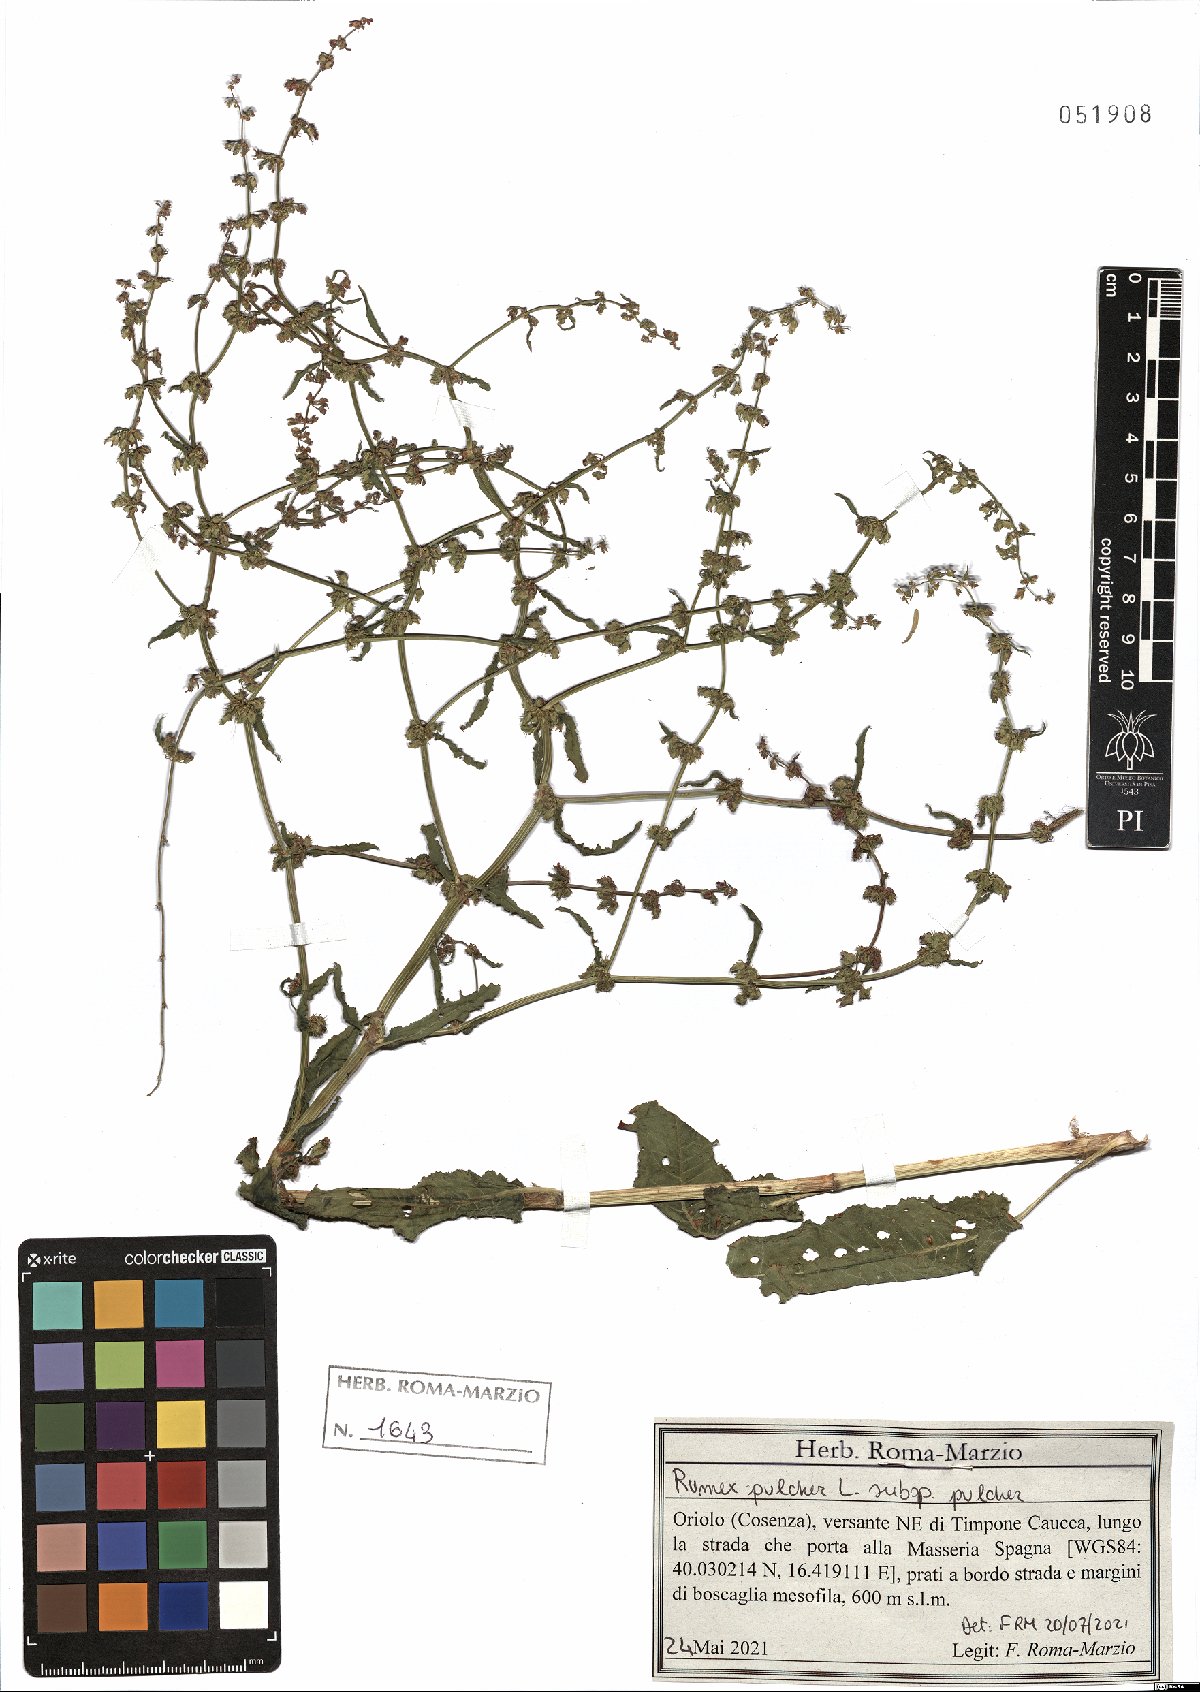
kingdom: Plantae
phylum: Tracheophyta
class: Magnoliopsida
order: Caryophyllales
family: Polygonaceae
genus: Rumex
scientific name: Rumex pulcher
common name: Fiddle dock
